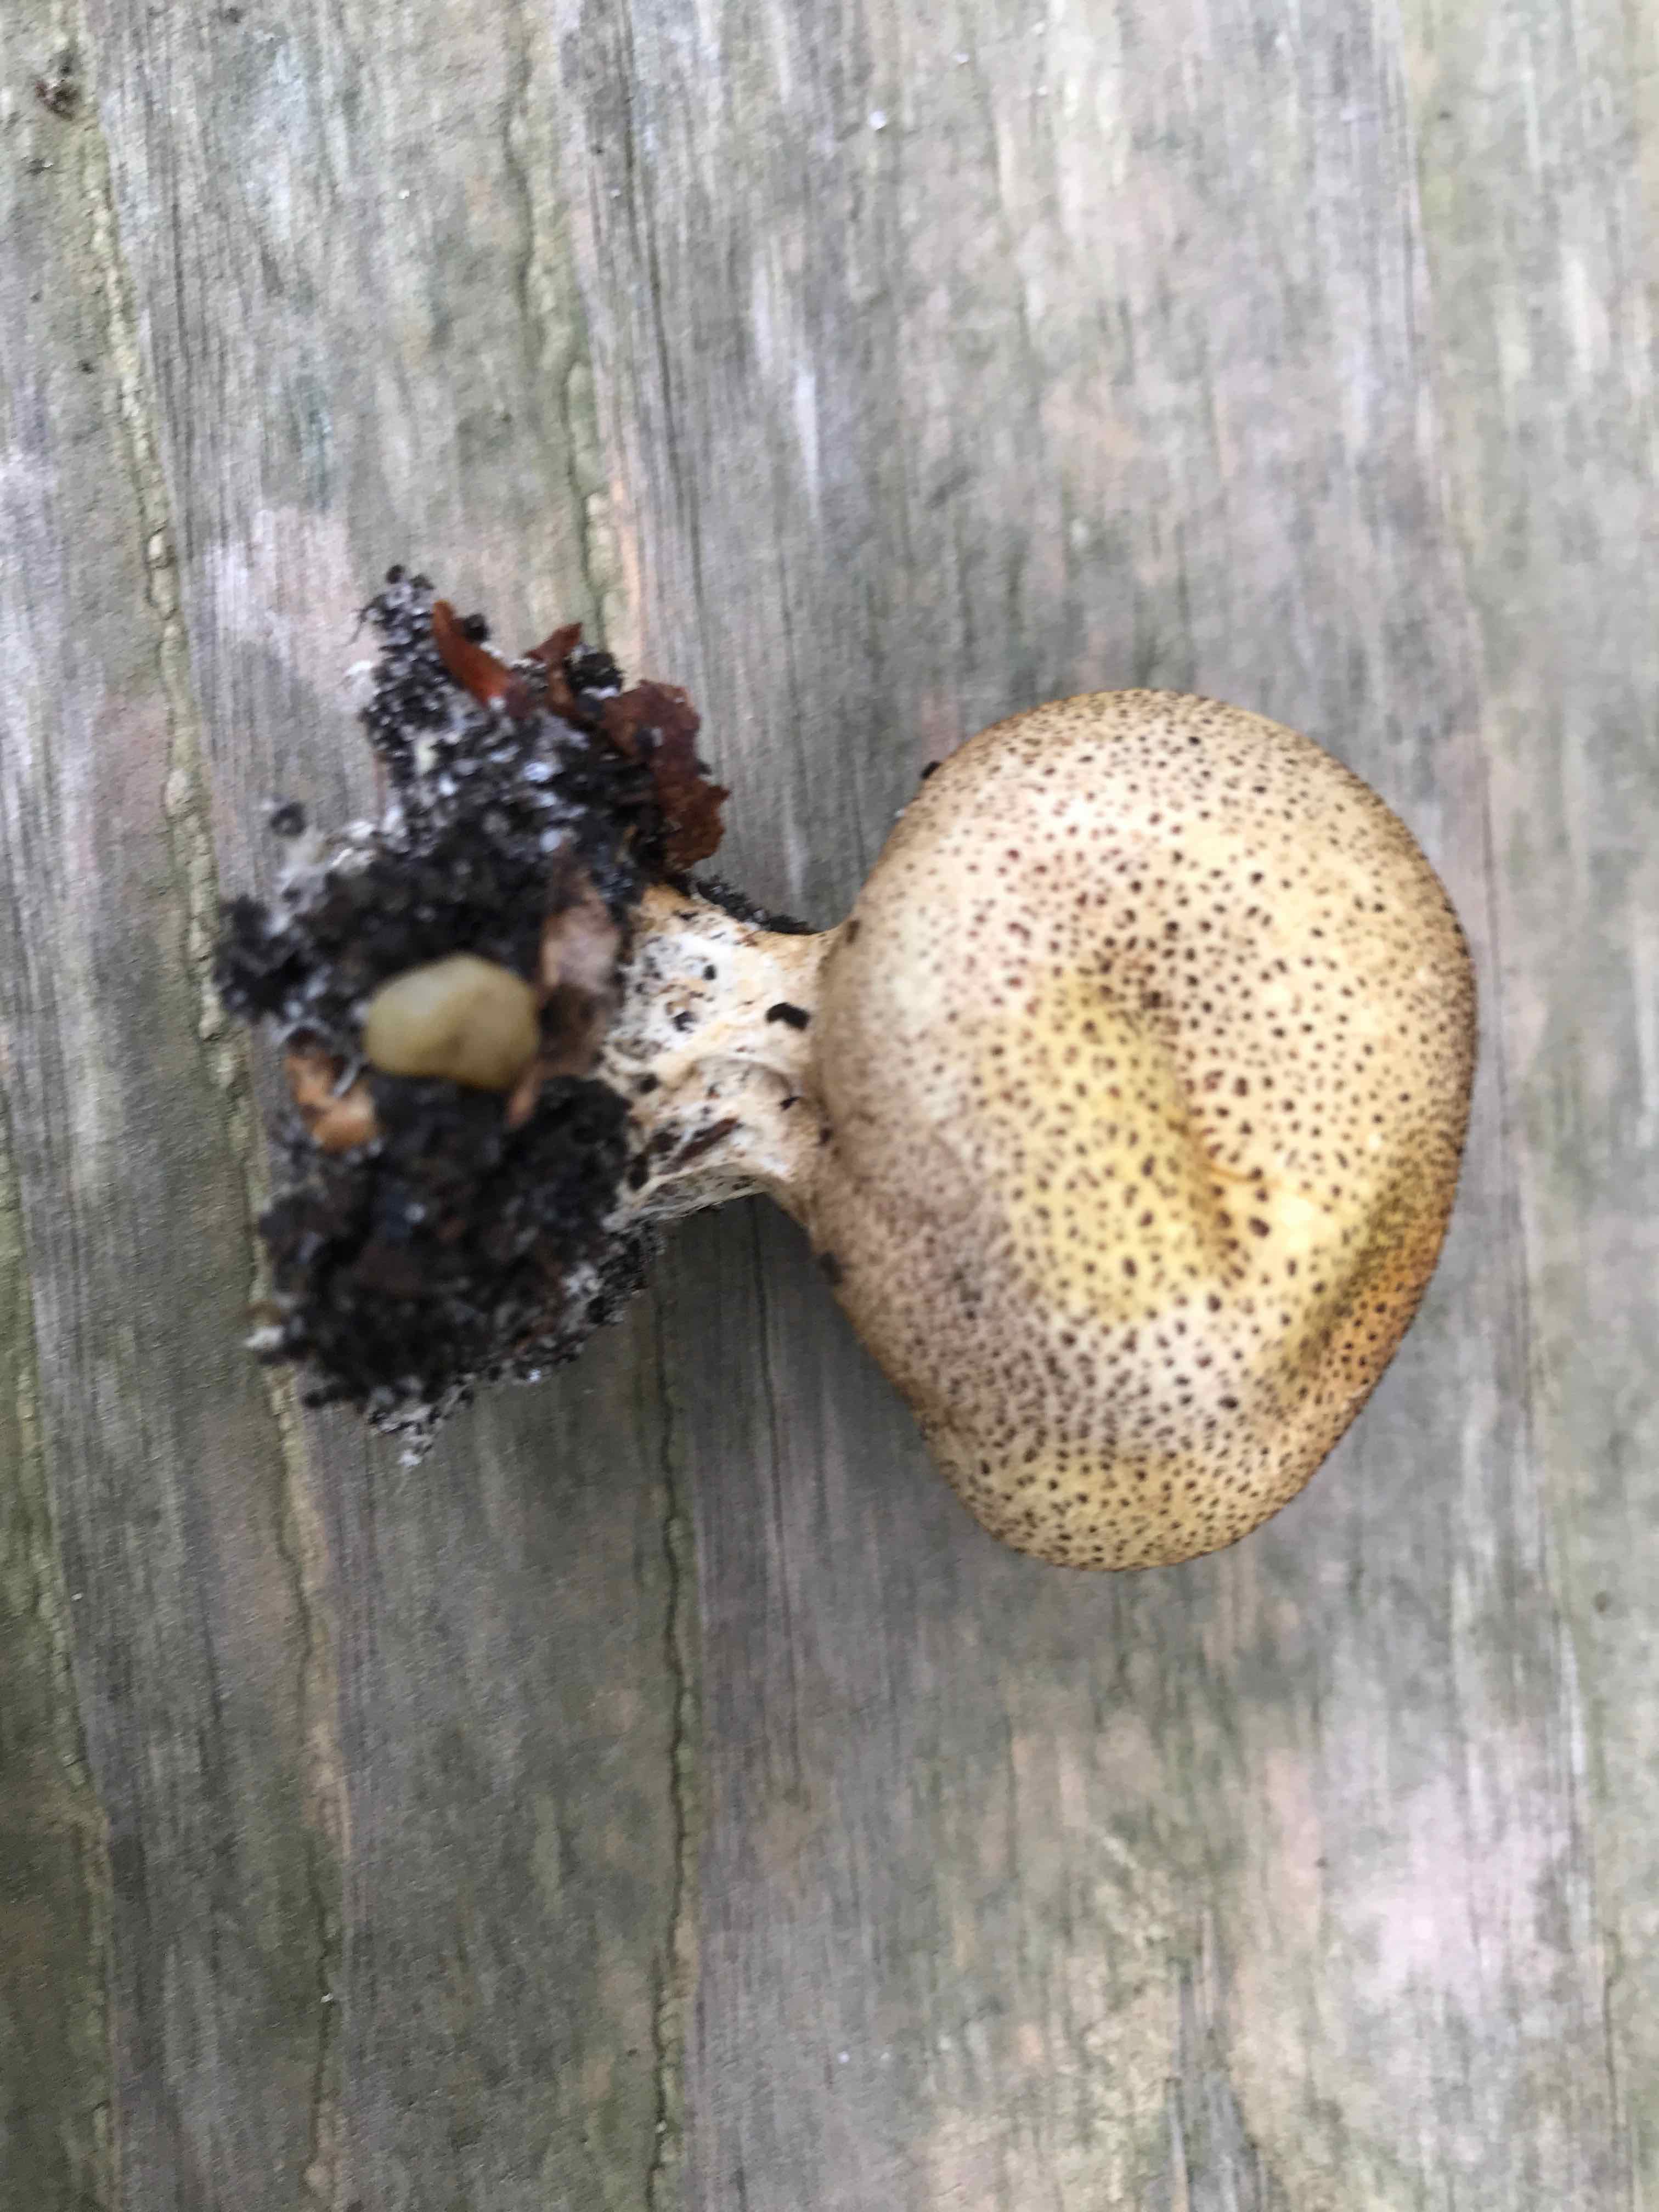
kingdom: Fungi
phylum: Basidiomycota
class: Agaricomycetes
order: Boletales
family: Sclerodermataceae
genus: Scleroderma
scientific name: Scleroderma
